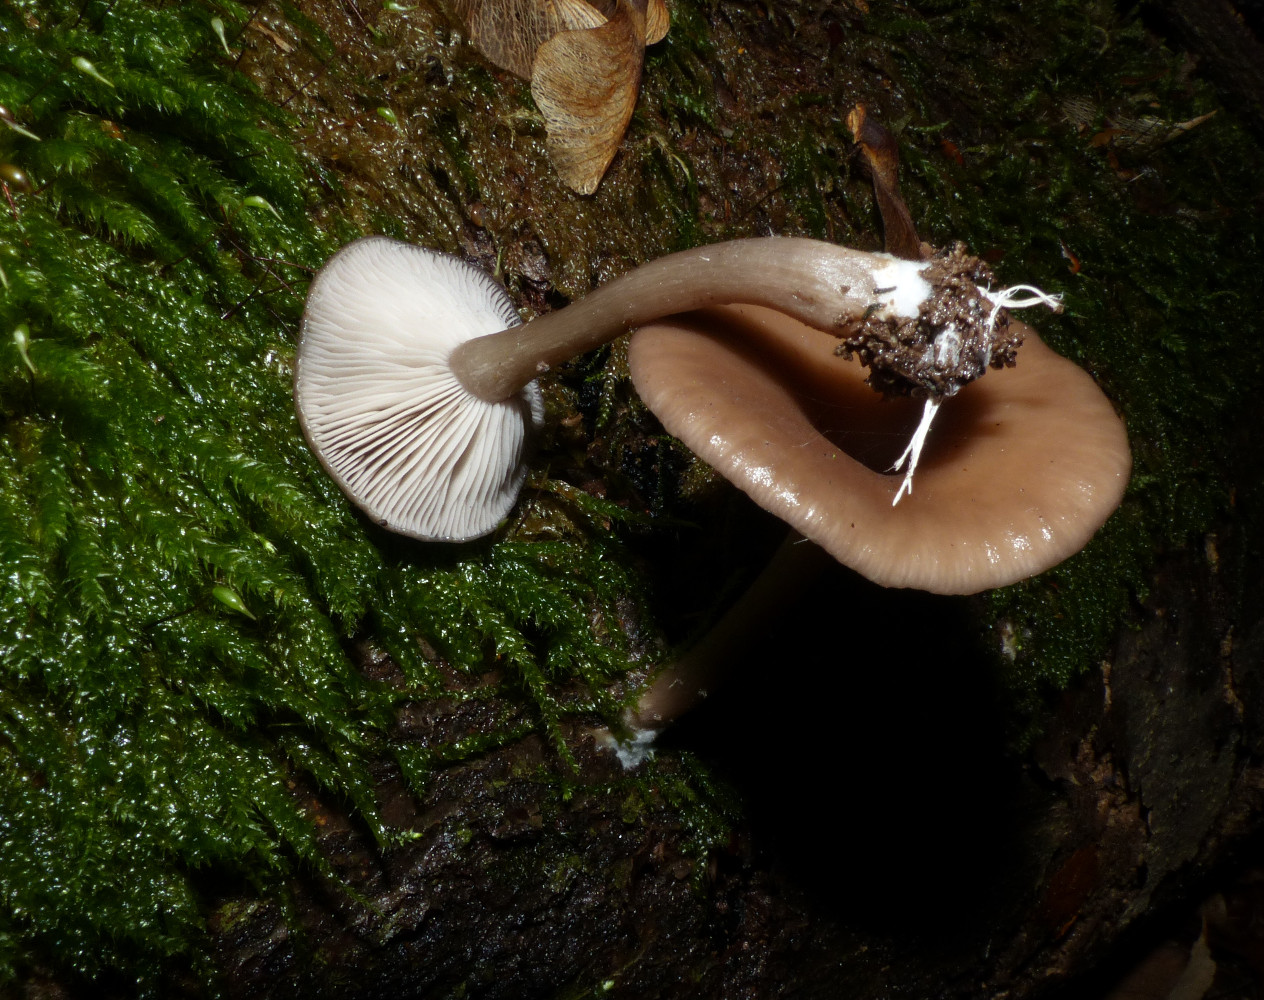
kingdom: Fungi
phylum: Basidiomycota
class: Agaricomycetes
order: Agaricales
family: Pseudoclitocybaceae
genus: Pseudoclitocybe
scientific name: Pseudoclitocybe cyathiformis
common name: almindelig bægertragthat
